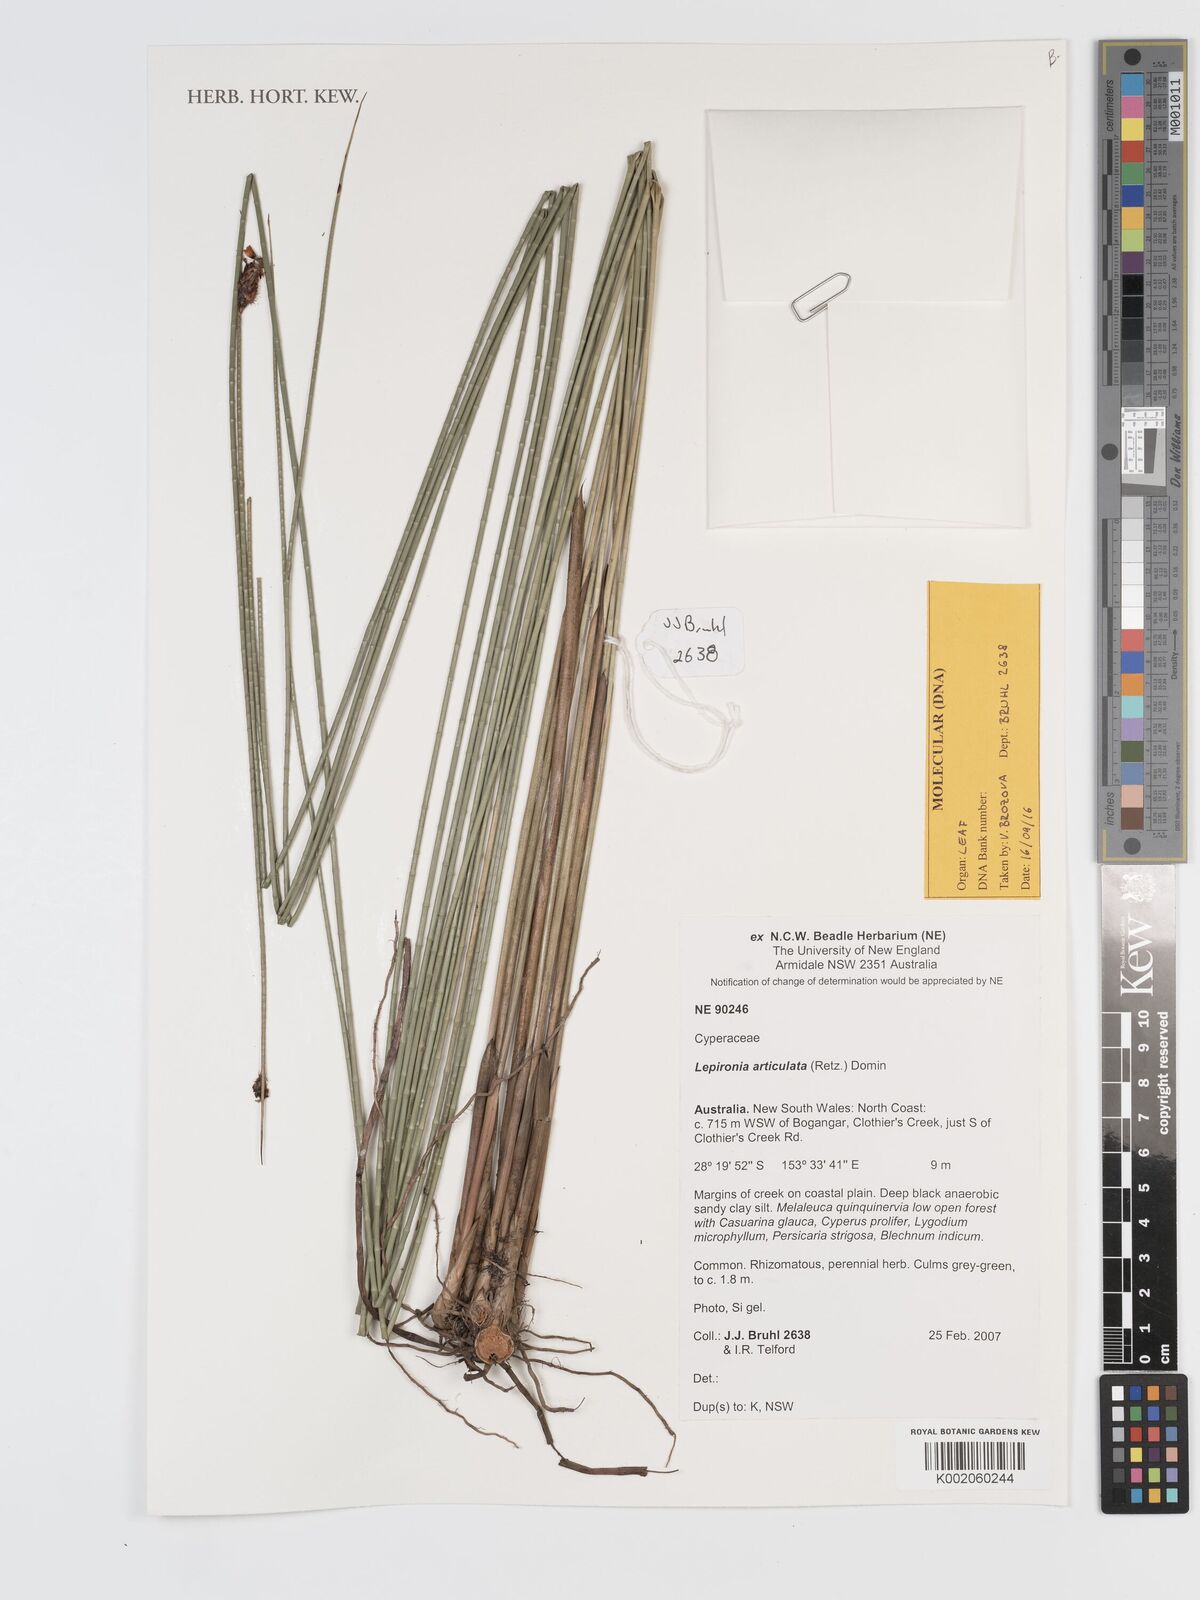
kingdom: Plantae
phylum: Tracheophyta
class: Liliopsida
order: Poales
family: Cyperaceae
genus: Lepironia
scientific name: Lepironia articulata
